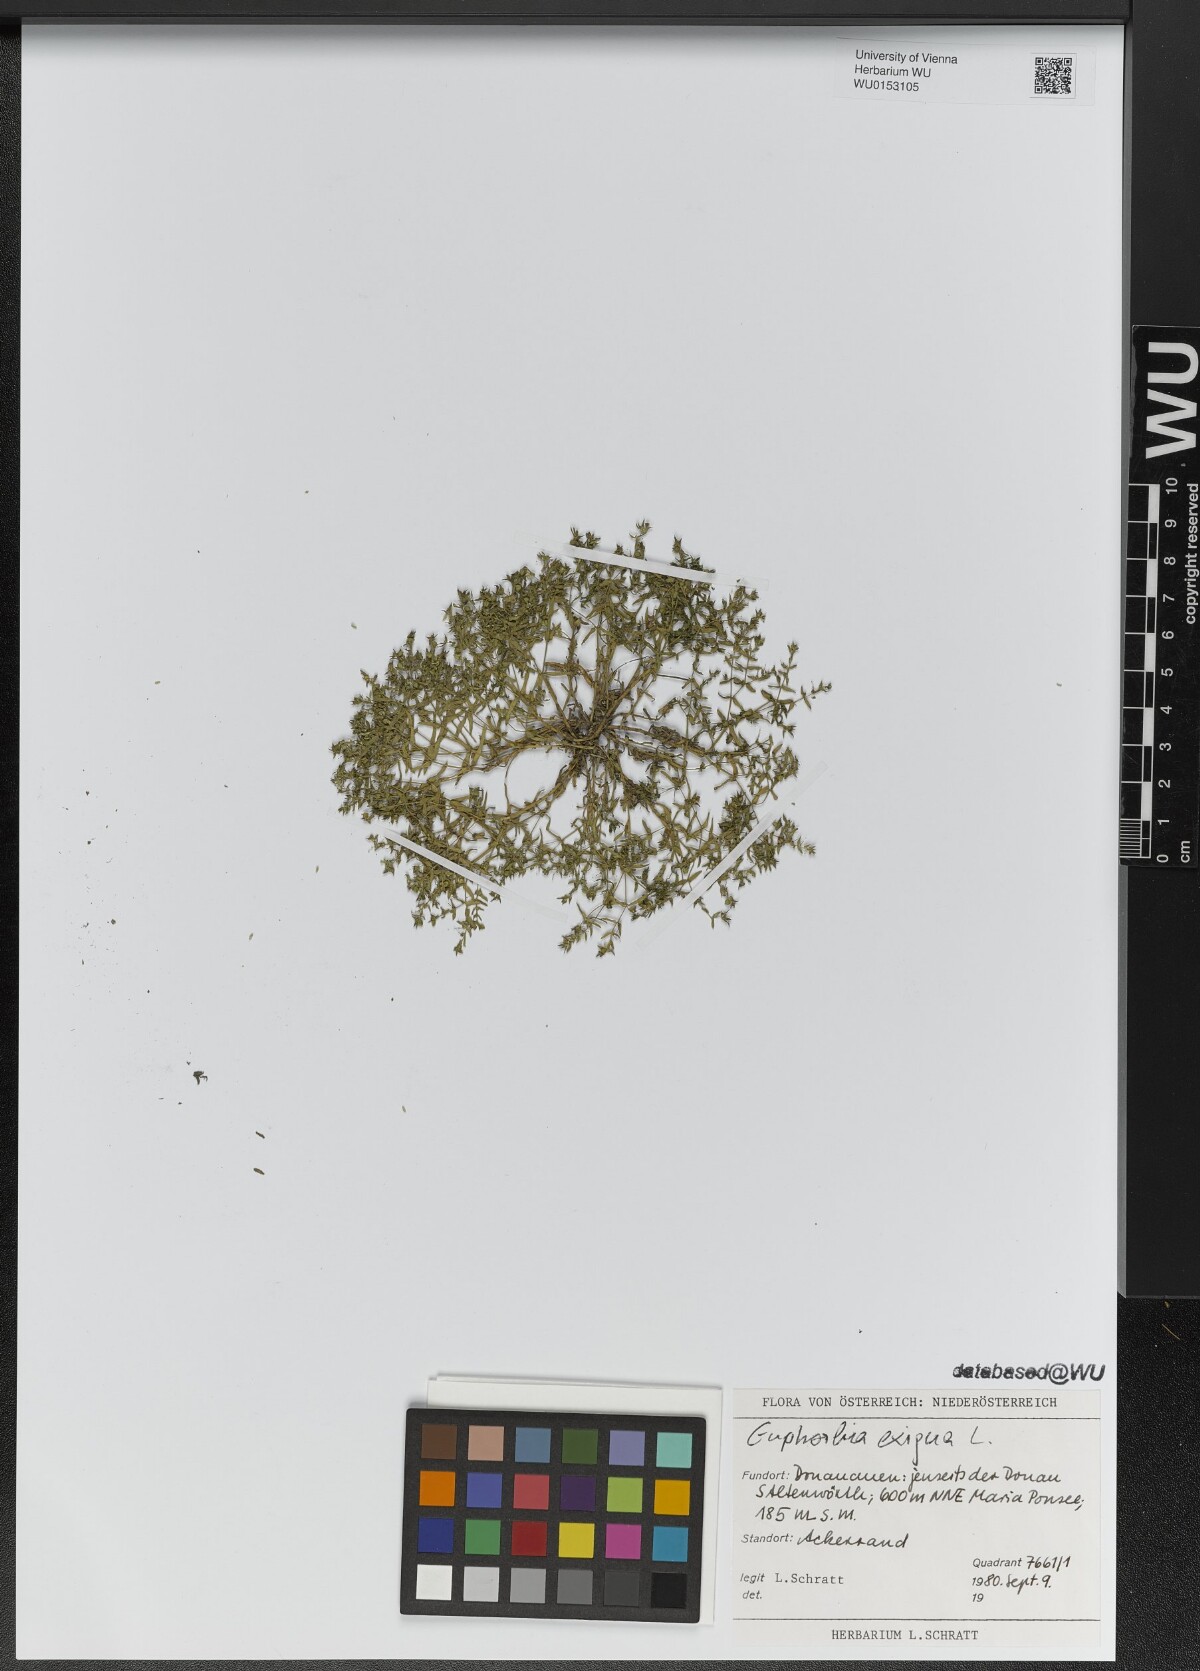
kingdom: Plantae
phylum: Tracheophyta
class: Magnoliopsida
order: Malpighiales
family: Euphorbiaceae
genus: Euphorbia
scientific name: Euphorbia exigua
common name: Dwarf spurge
